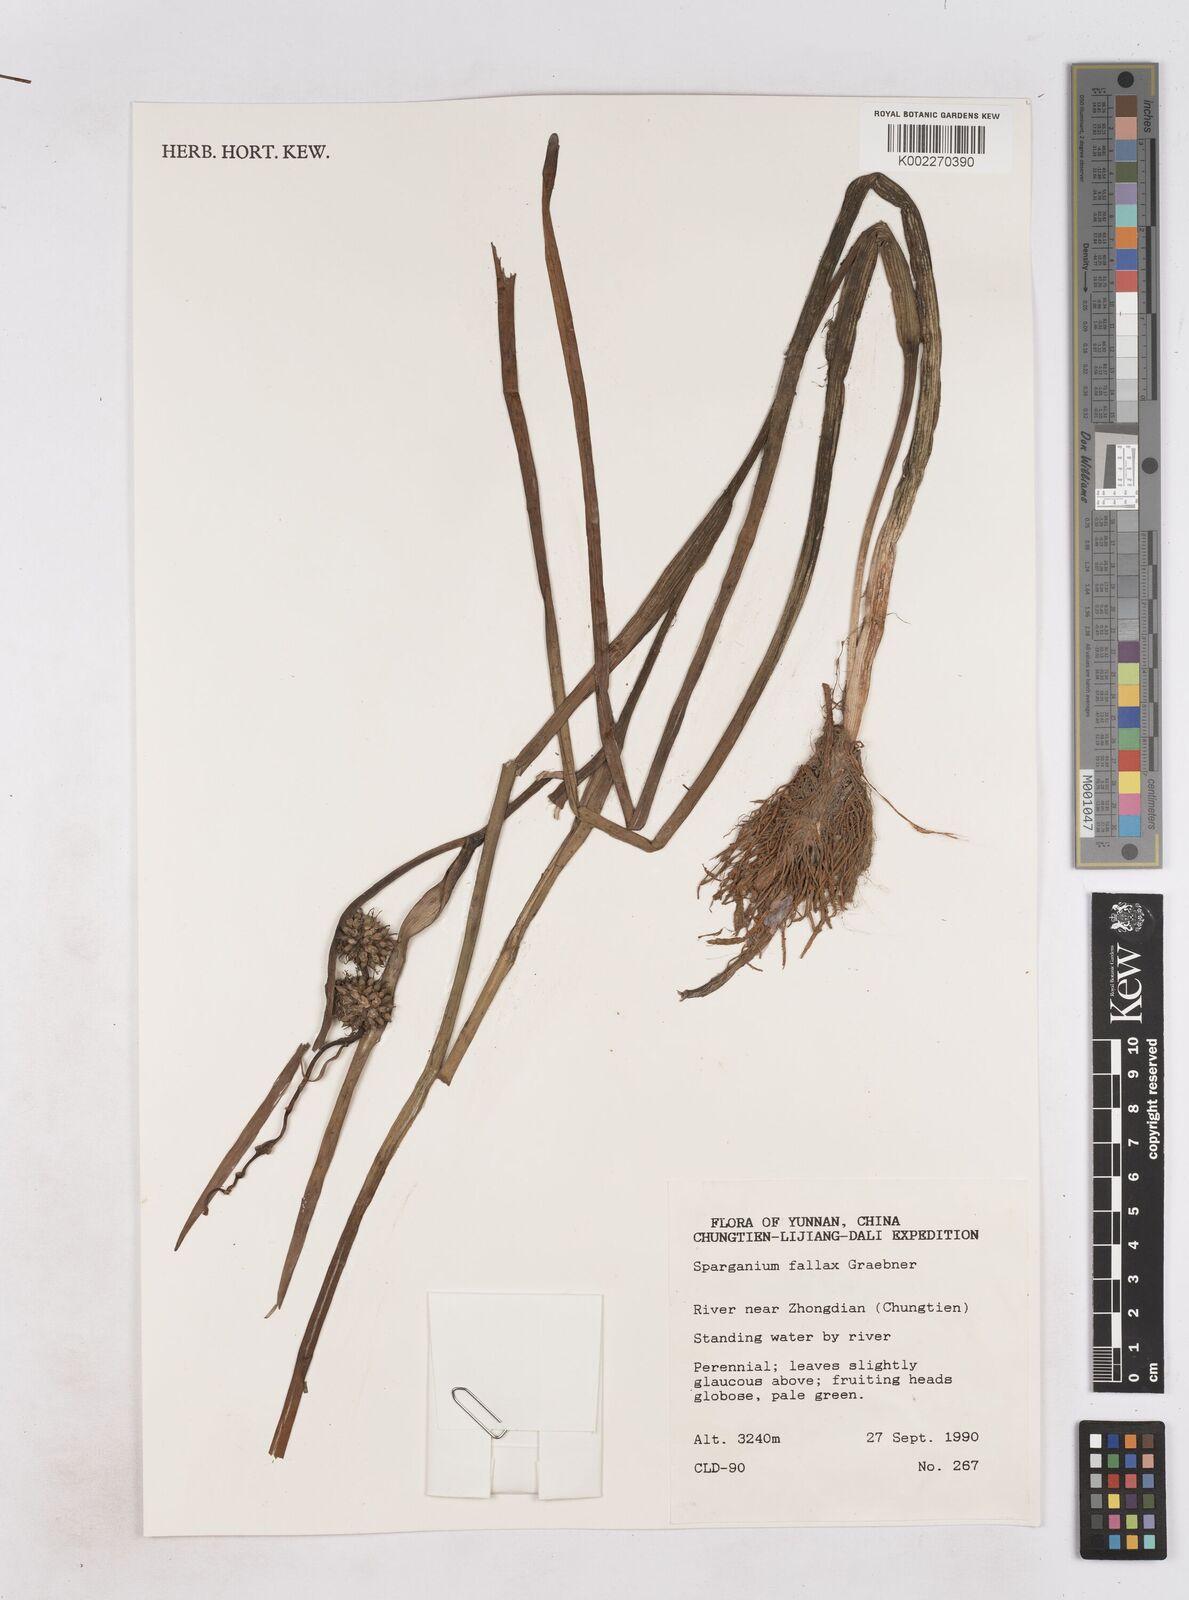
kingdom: Plantae
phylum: Tracheophyta
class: Liliopsida
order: Poales
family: Typhaceae
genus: Sparganium
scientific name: Sparganium fallax
